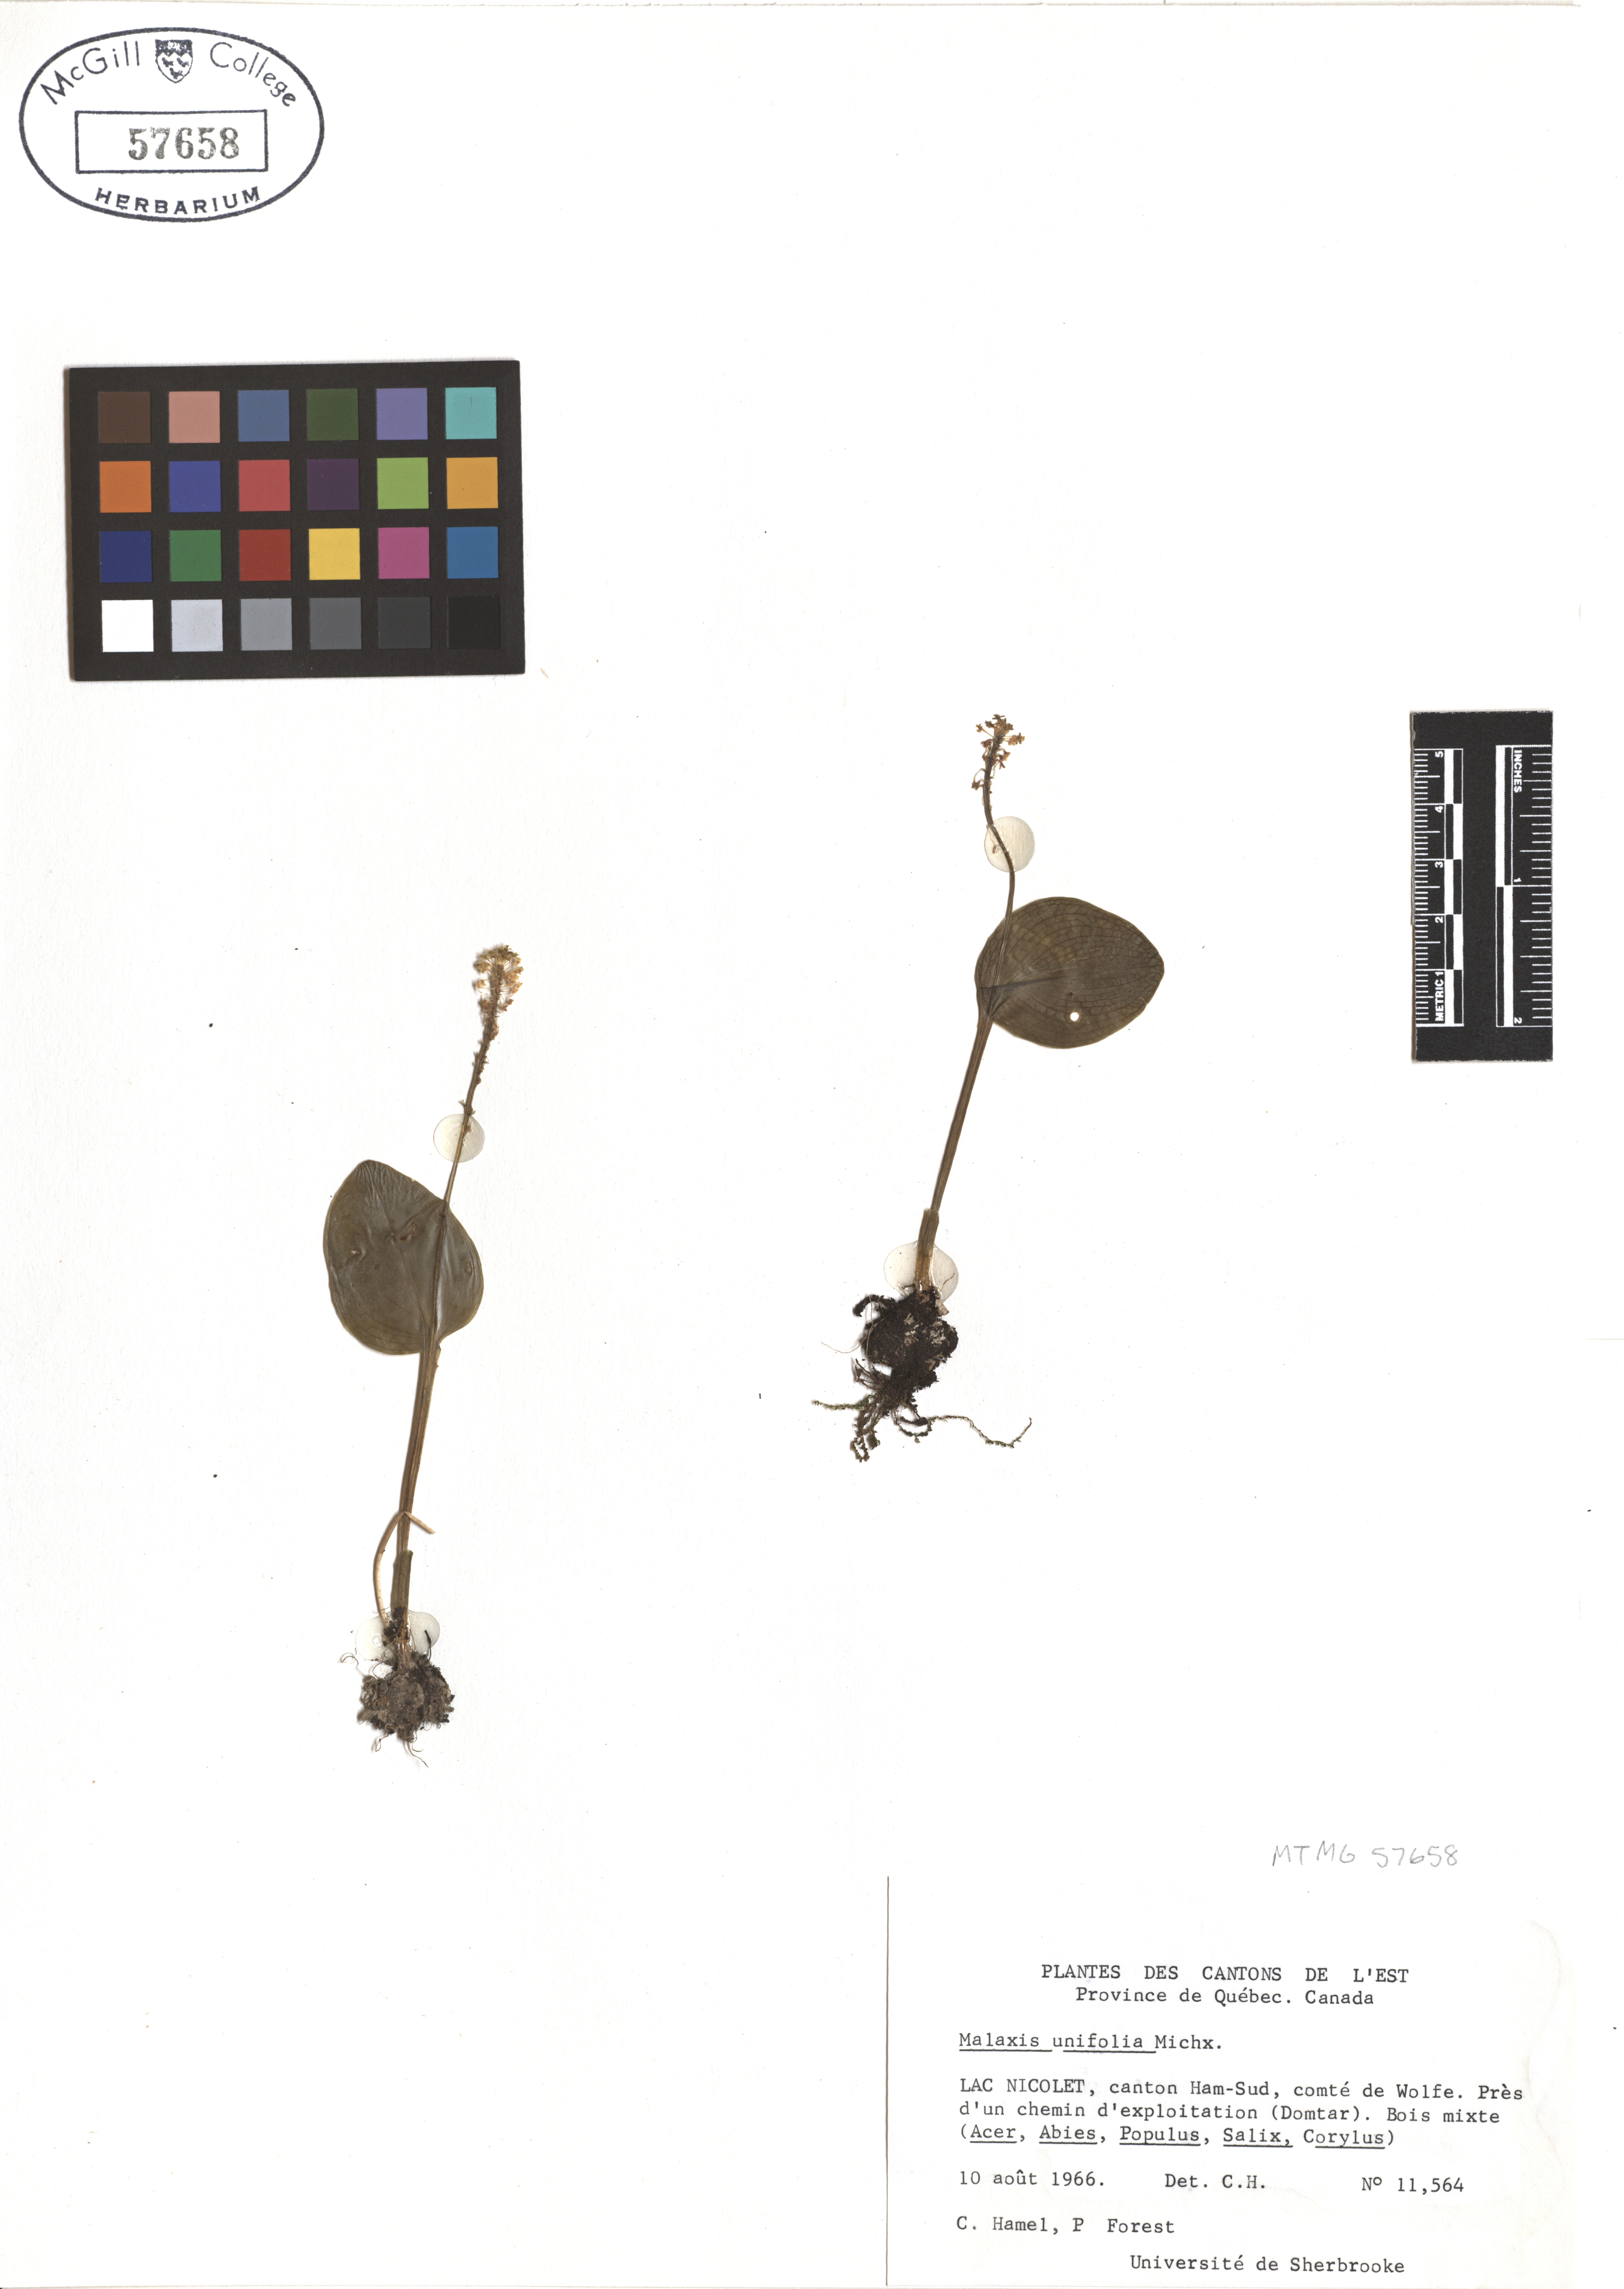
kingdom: Plantae
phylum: Tracheophyta
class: Liliopsida
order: Asparagales
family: Orchidaceae
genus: Malaxis
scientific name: Malaxis unifolia
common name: Green adder's-mouth
